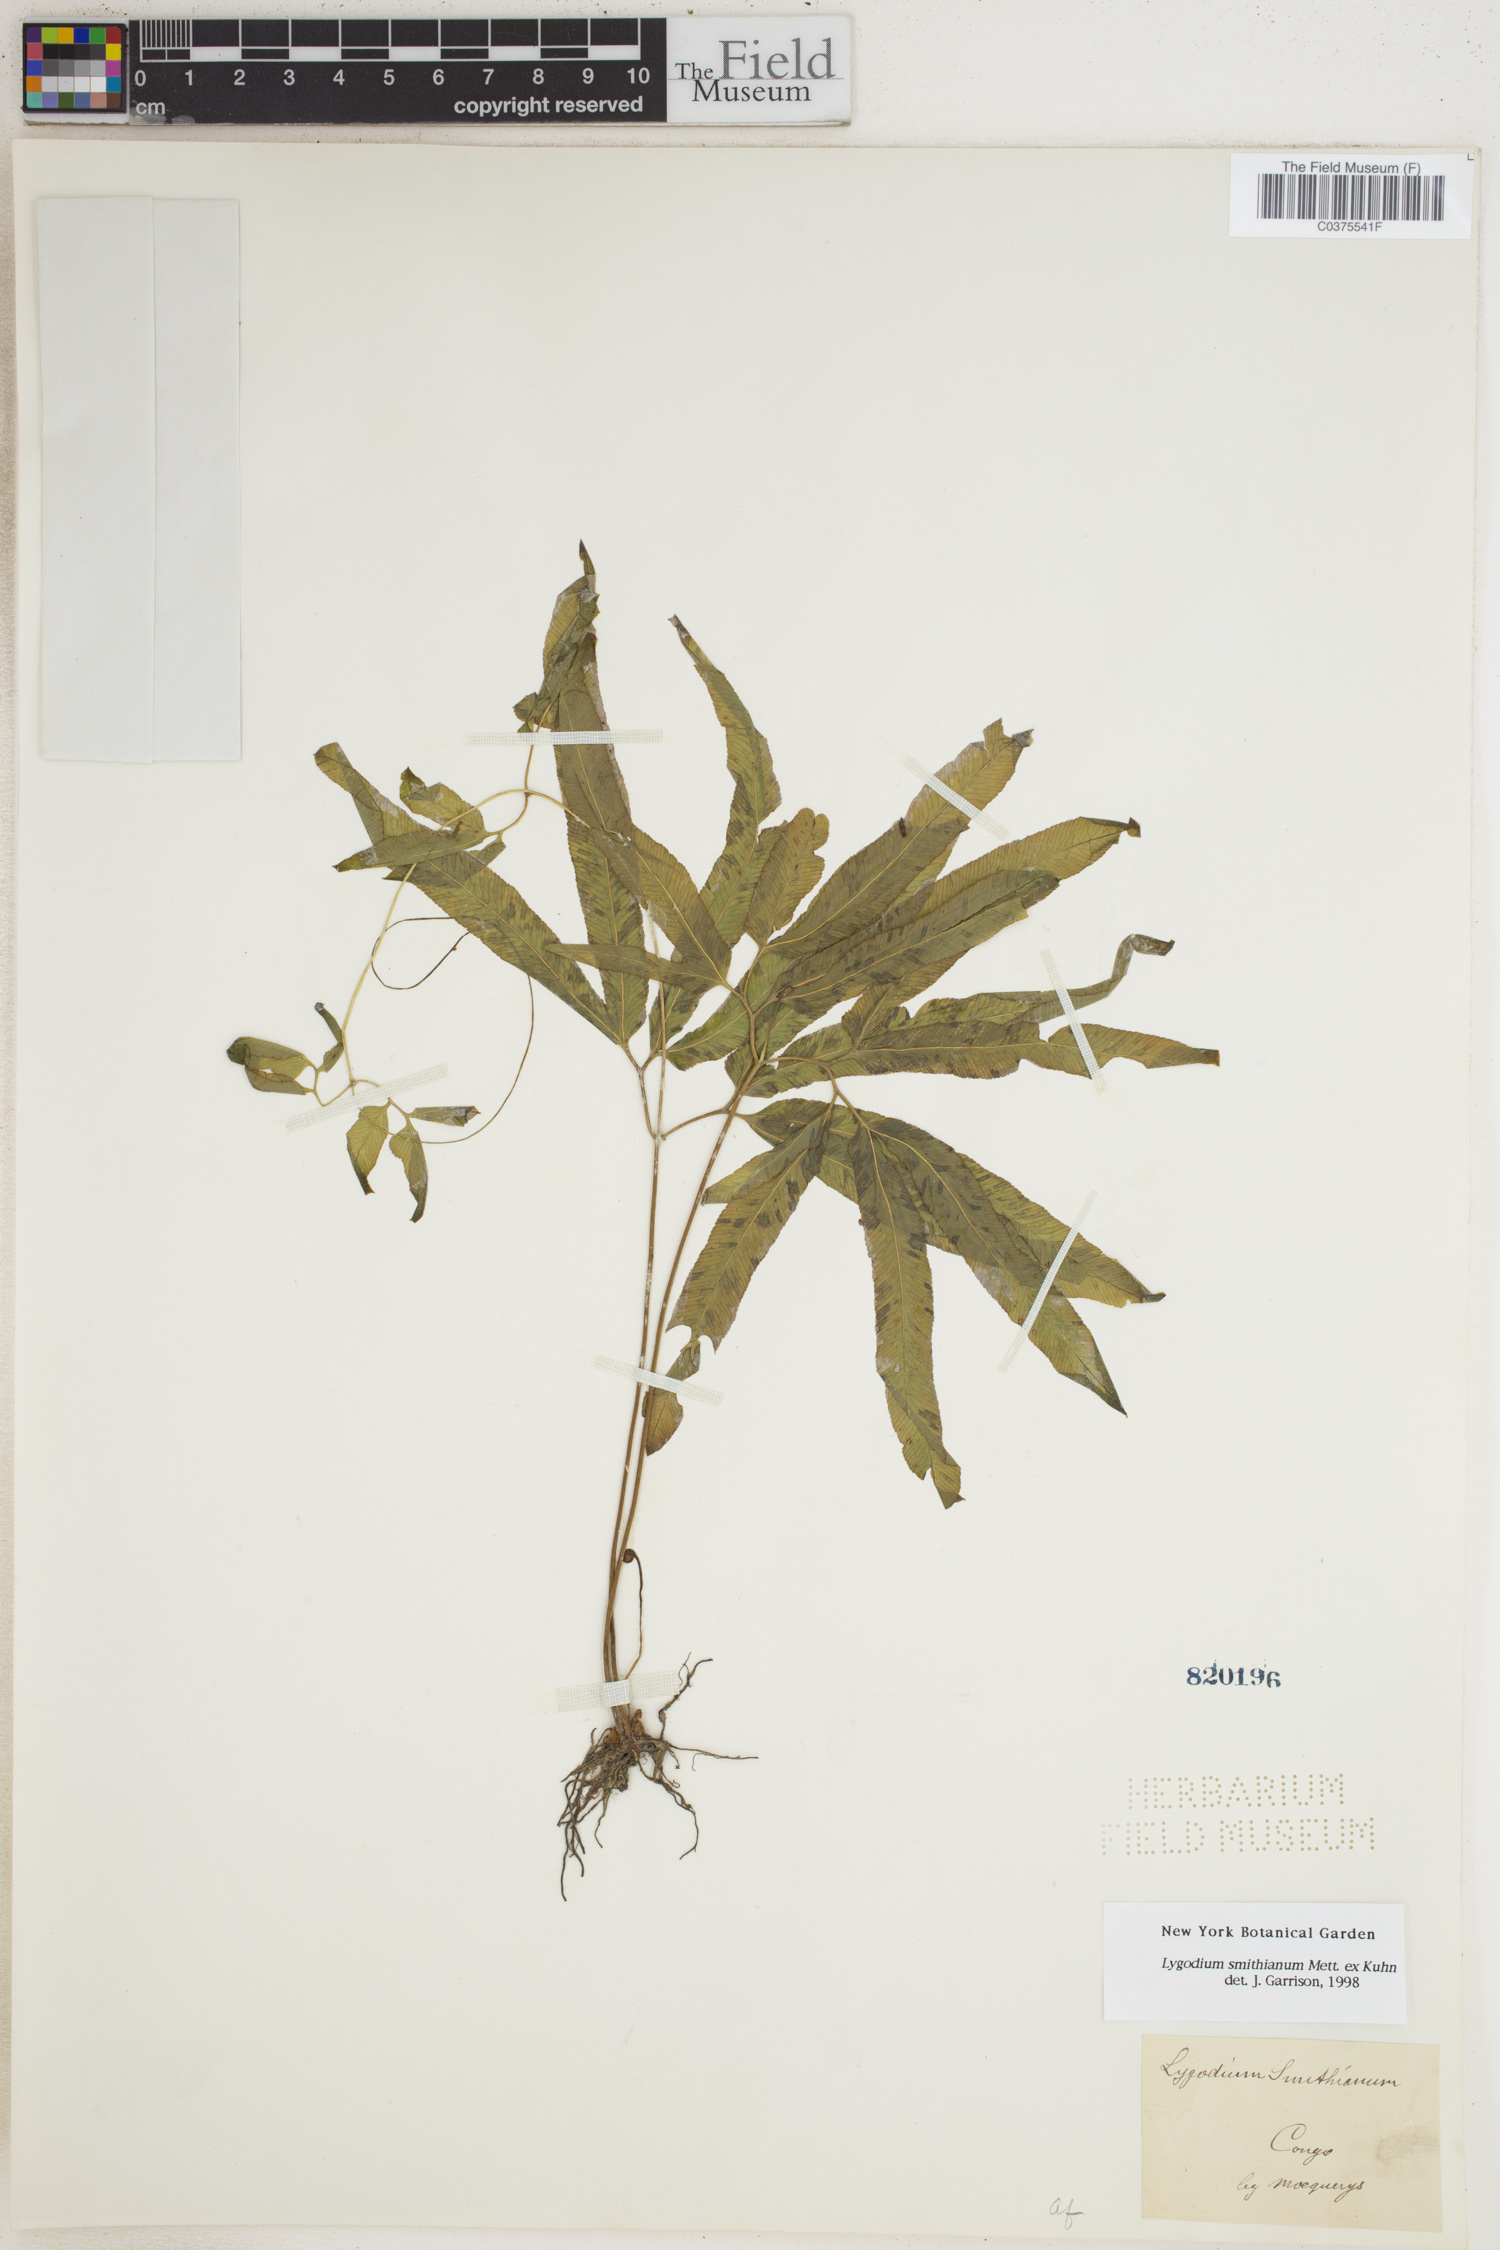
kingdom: Plantae
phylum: Tracheophyta
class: Polypodiopsida
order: Schizaeales
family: Lygodiaceae
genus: Lygodium
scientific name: Lygodium smithianum
